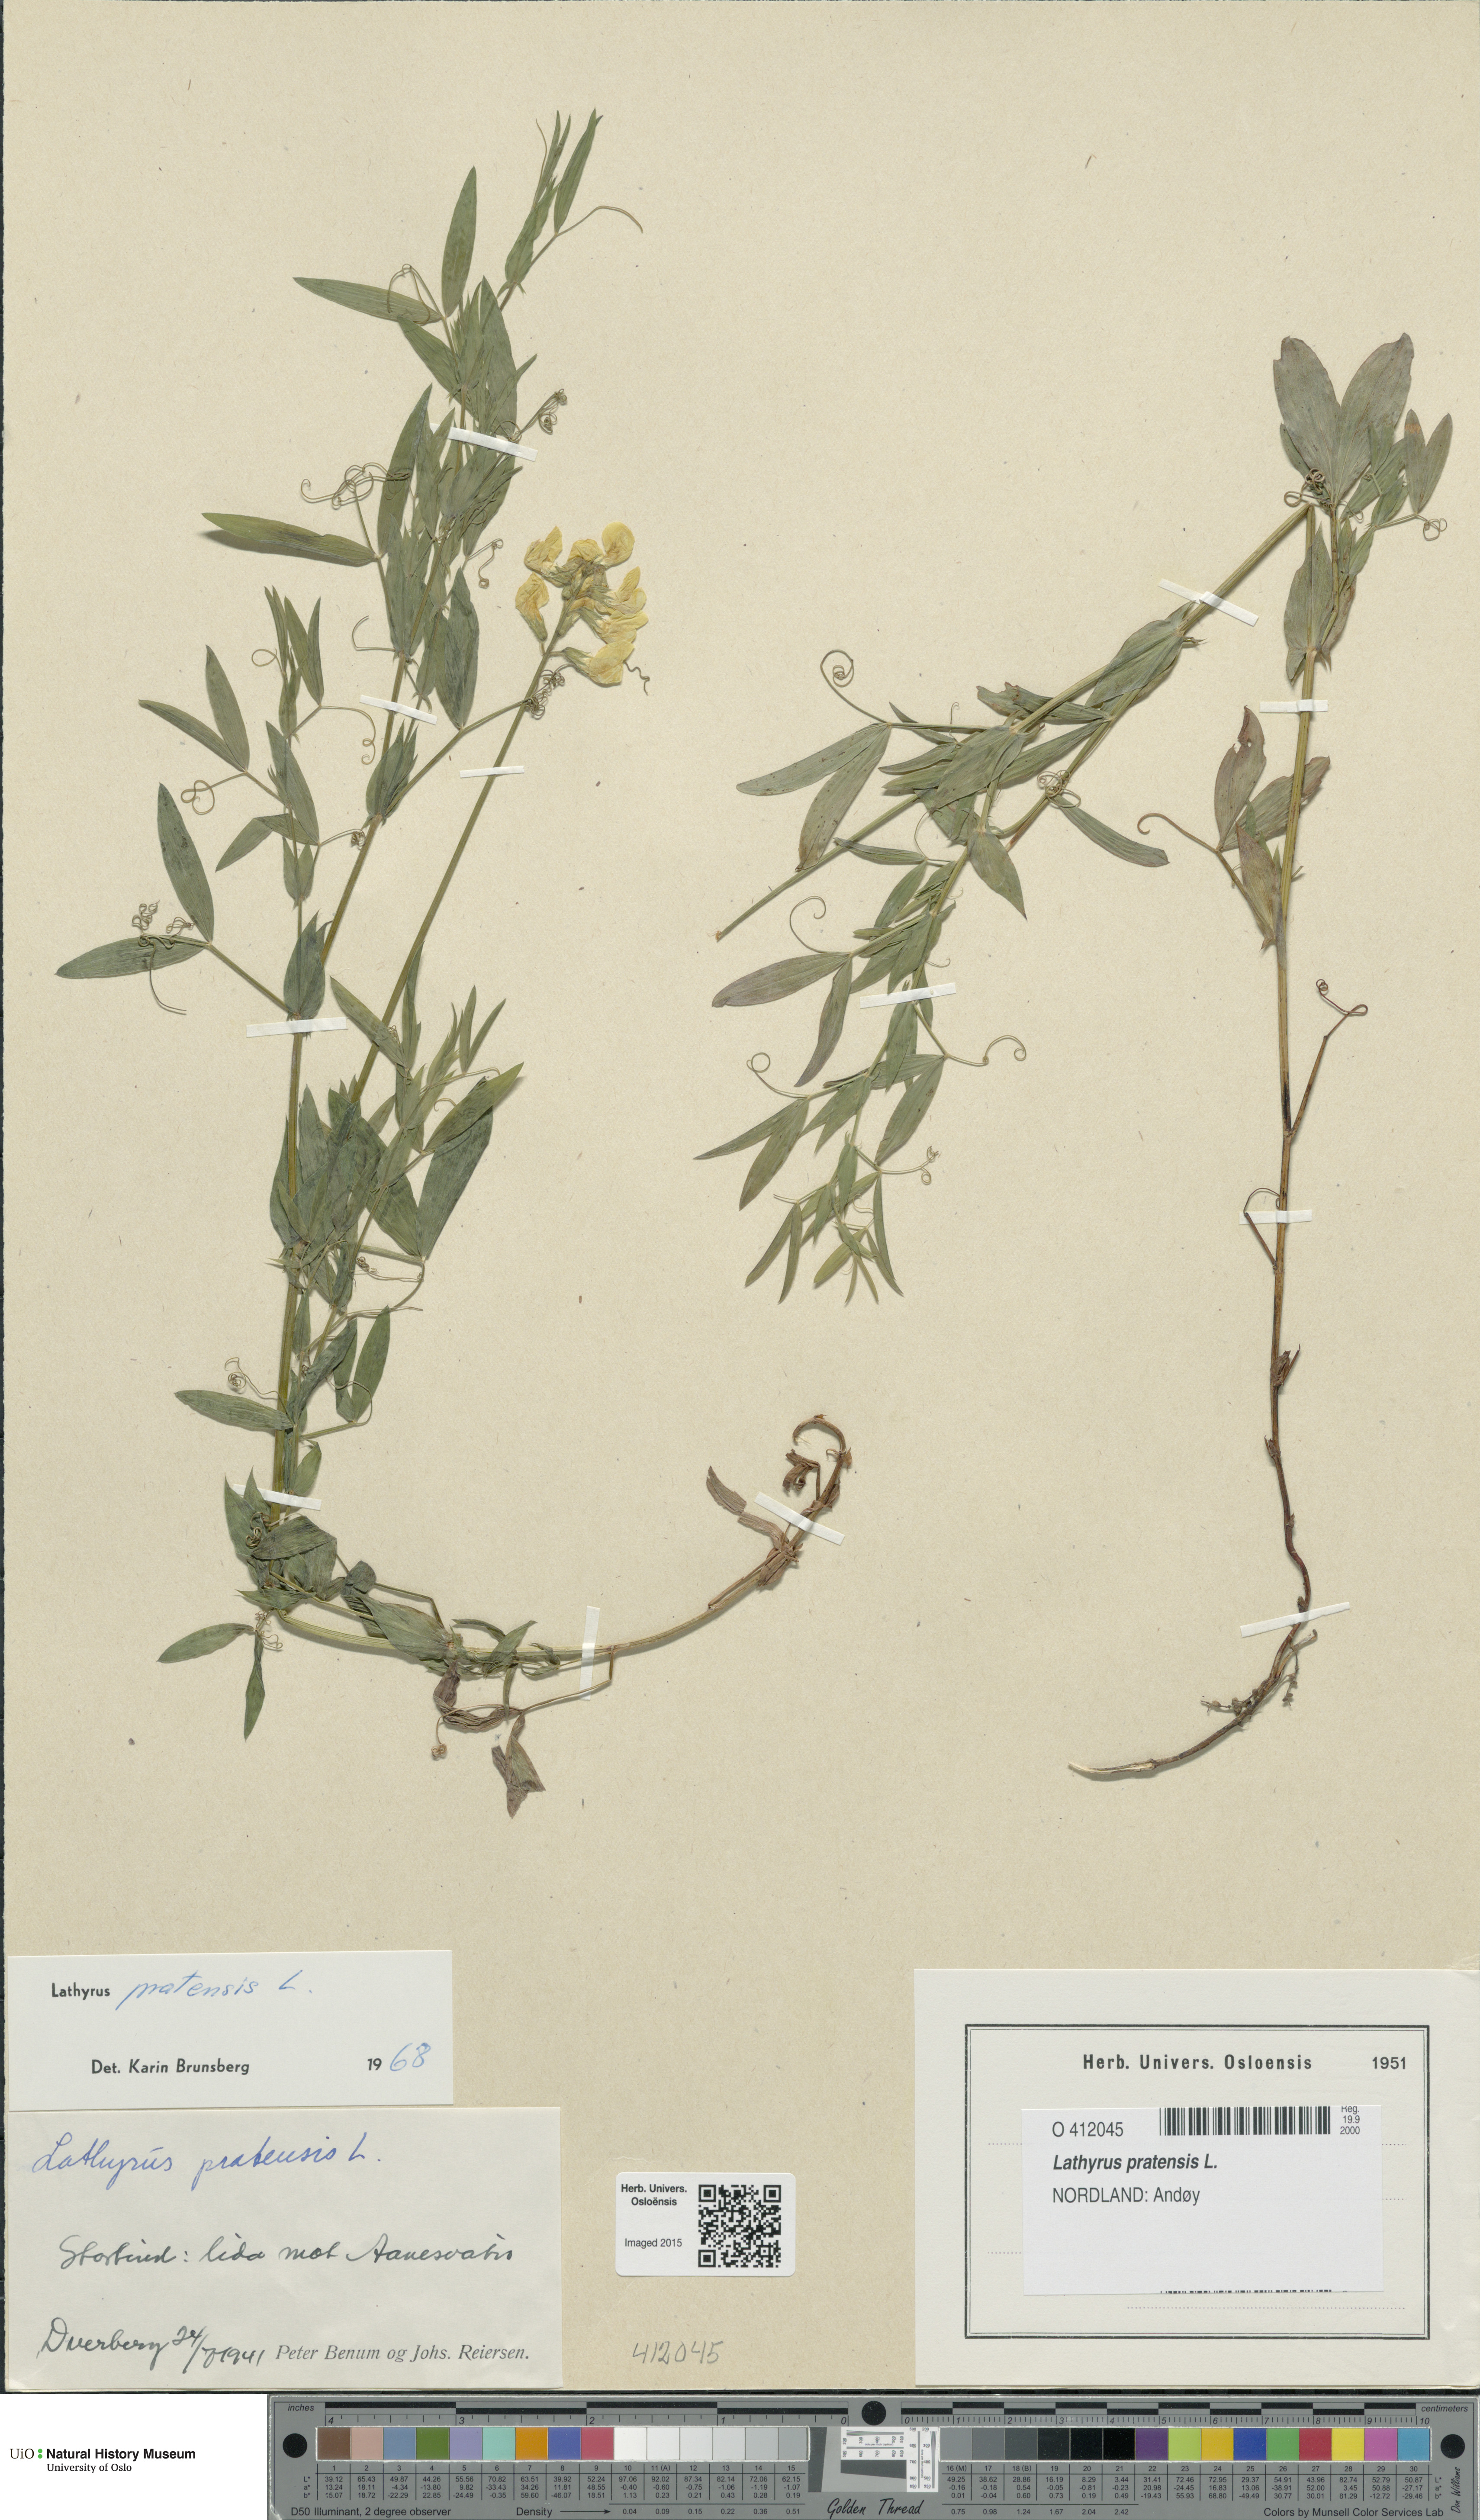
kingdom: Plantae
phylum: Tracheophyta
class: Magnoliopsida
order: Fabales
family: Fabaceae
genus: Lathyrus
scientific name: Lathyrus pratensis
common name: Meadow vetchling
